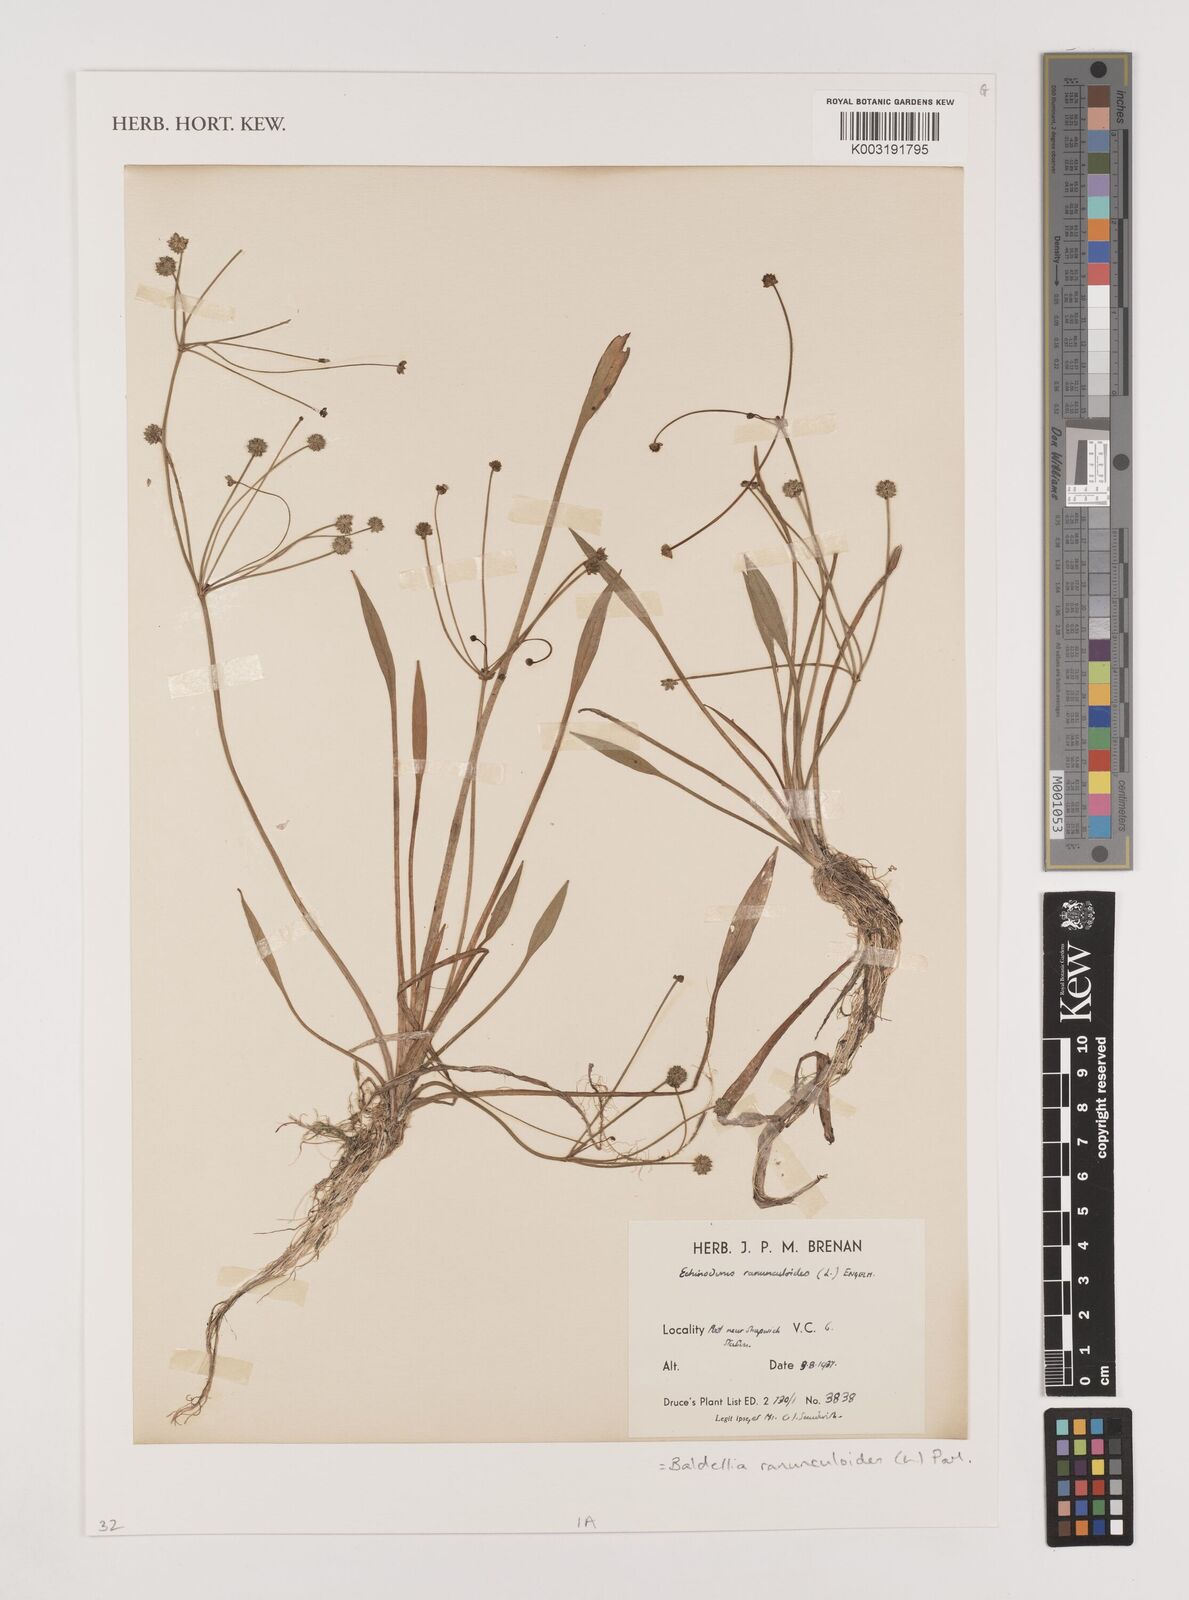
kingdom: Plantae
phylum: Tracheophyta
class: Liliopsida
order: Alismatales
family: Alismataceae
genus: Baldellia
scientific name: Baldellia ranunculoides
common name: Lesser water-plantain
